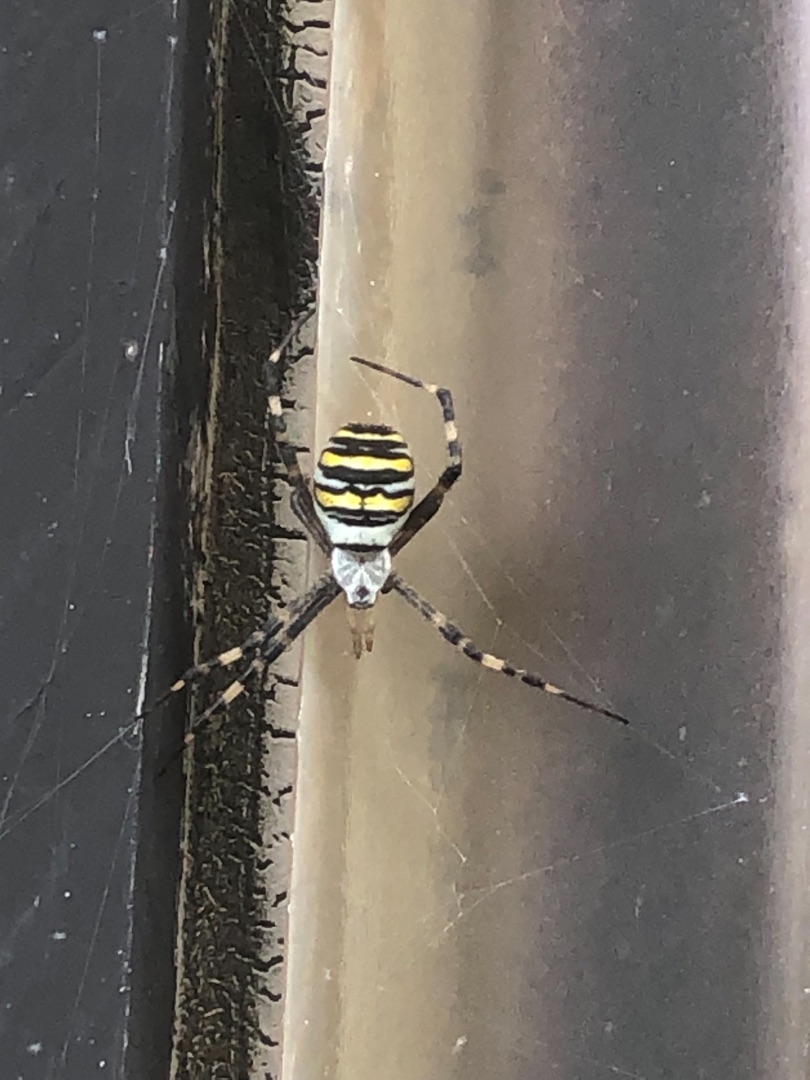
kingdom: Animalia
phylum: Arthropoda
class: Arachnida
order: Araneae
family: Araneidae
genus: Argiope
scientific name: Argiope bruennichi
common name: Hvepseedderkop
